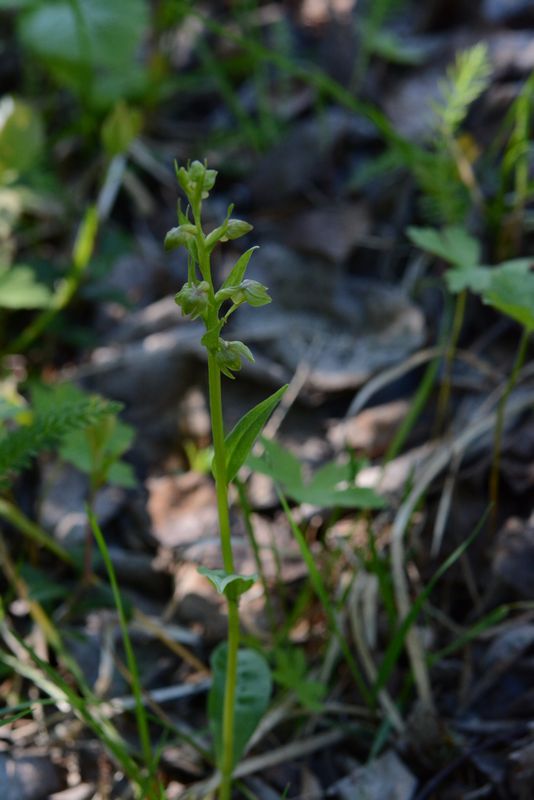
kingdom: Plantae
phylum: Tracheophyta
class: Liliopsida
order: Asparagales
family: Orchidaceae
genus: Dactylorhiza
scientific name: Dactylorhiza viridis
